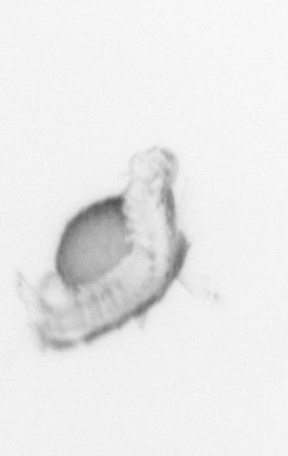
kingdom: Animalia
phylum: Annelida
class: Polychaeta
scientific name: Polychaeta
